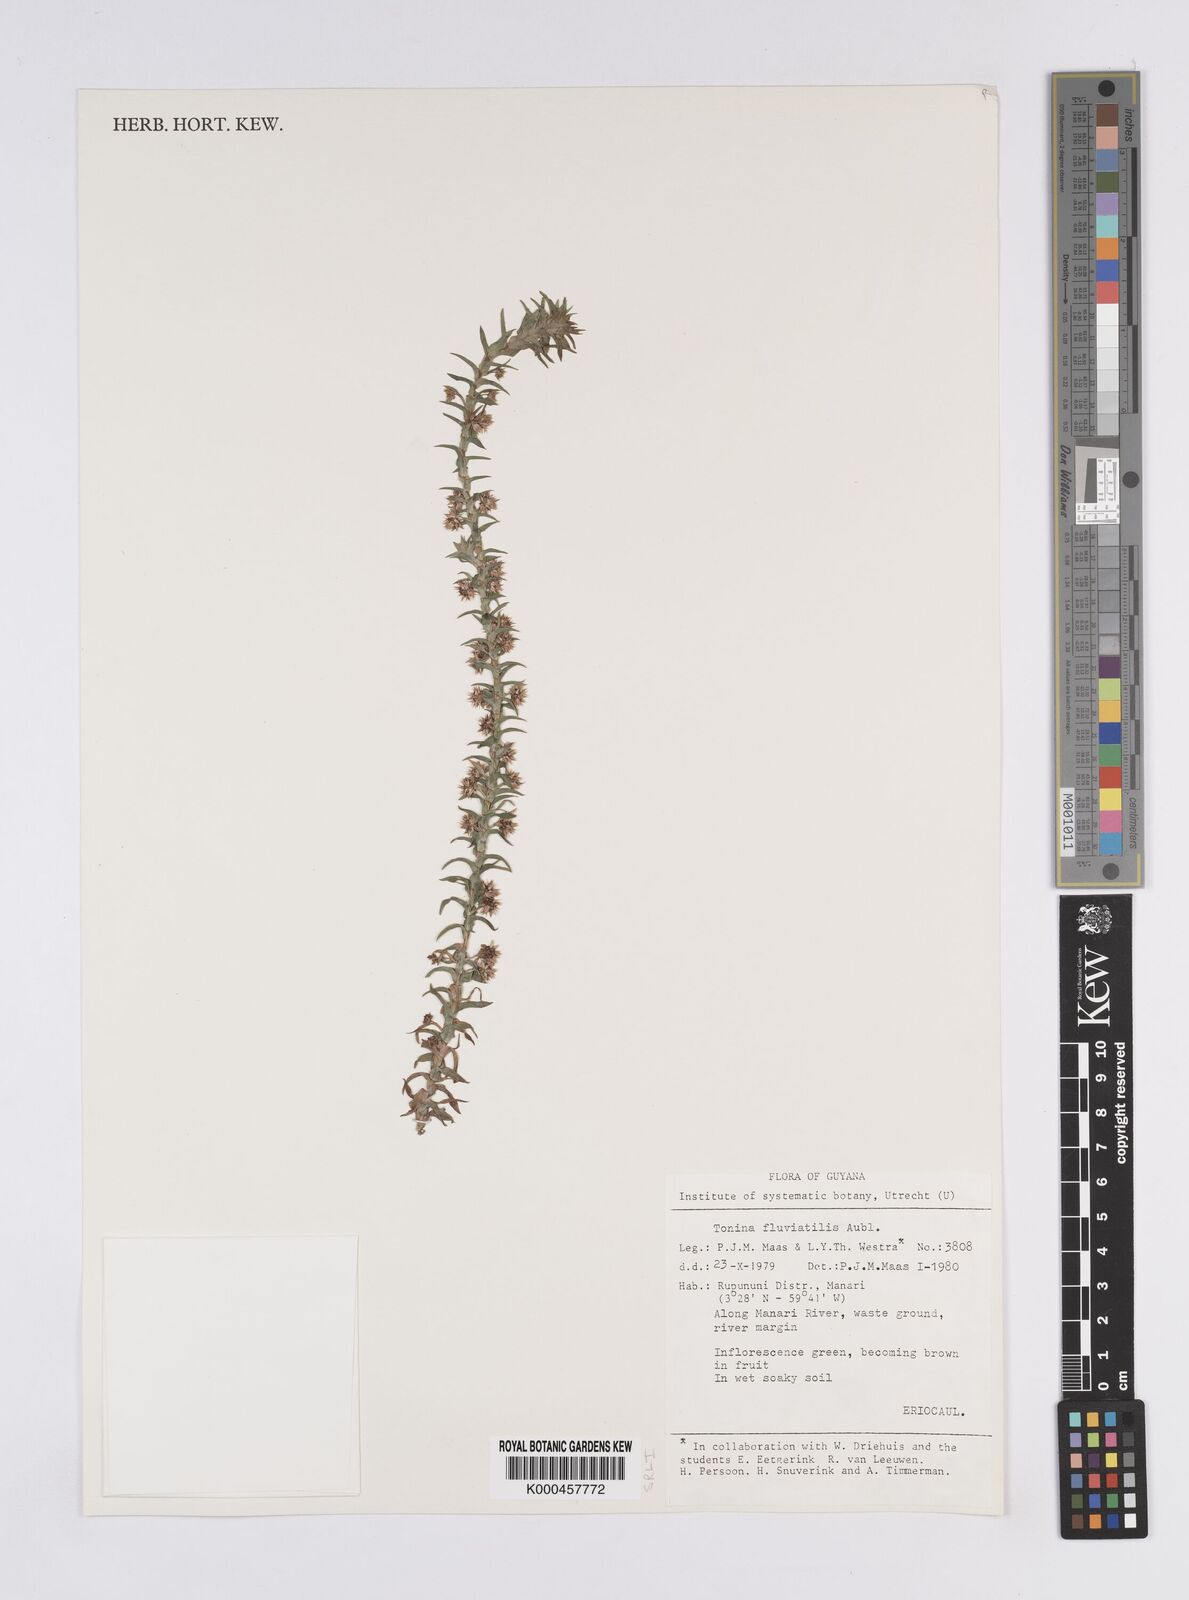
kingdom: Plantae
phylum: Tracheophyta
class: Liliopsida
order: Poales
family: Eriocaulaceae
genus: Paepalanthus
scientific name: Paepalanthus fluviatilis
